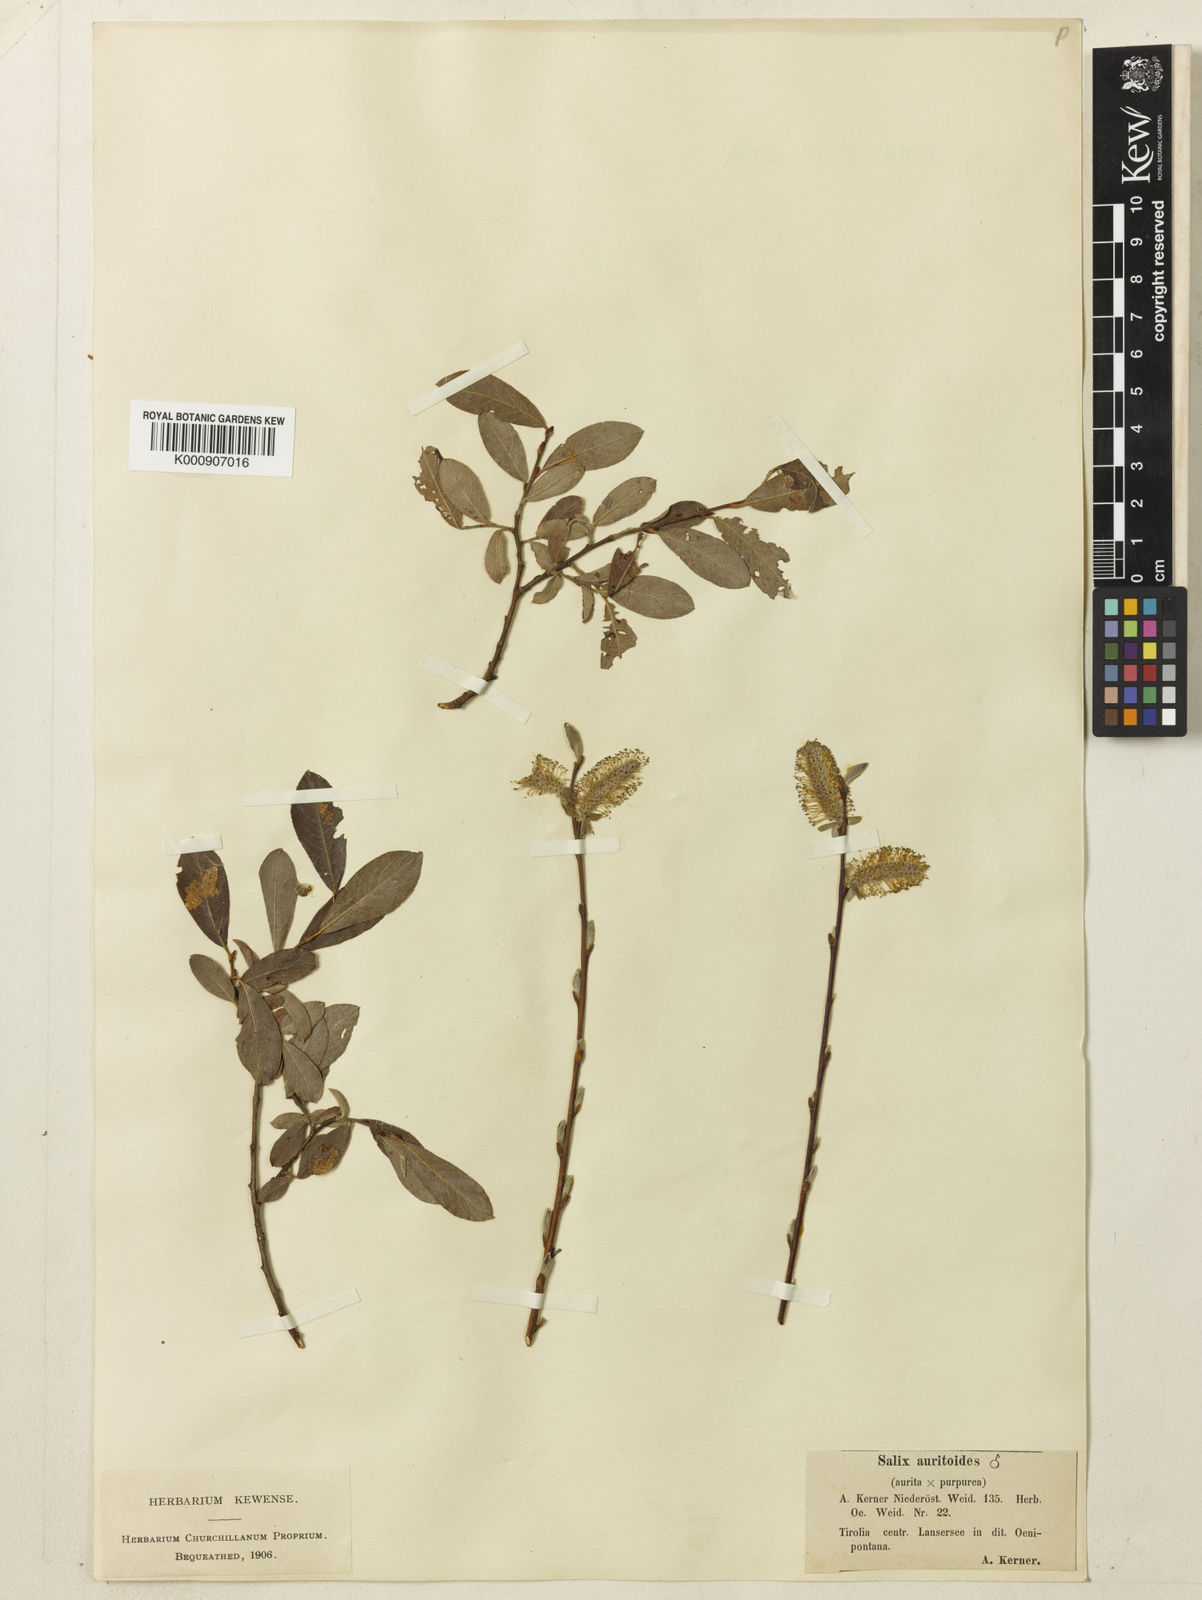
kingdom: Plantae
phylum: Tracheophyta
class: Magnoliopsida
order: Malpighiales
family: Salicaceae
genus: Salix
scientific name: Salix aurita
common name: Eared willow
